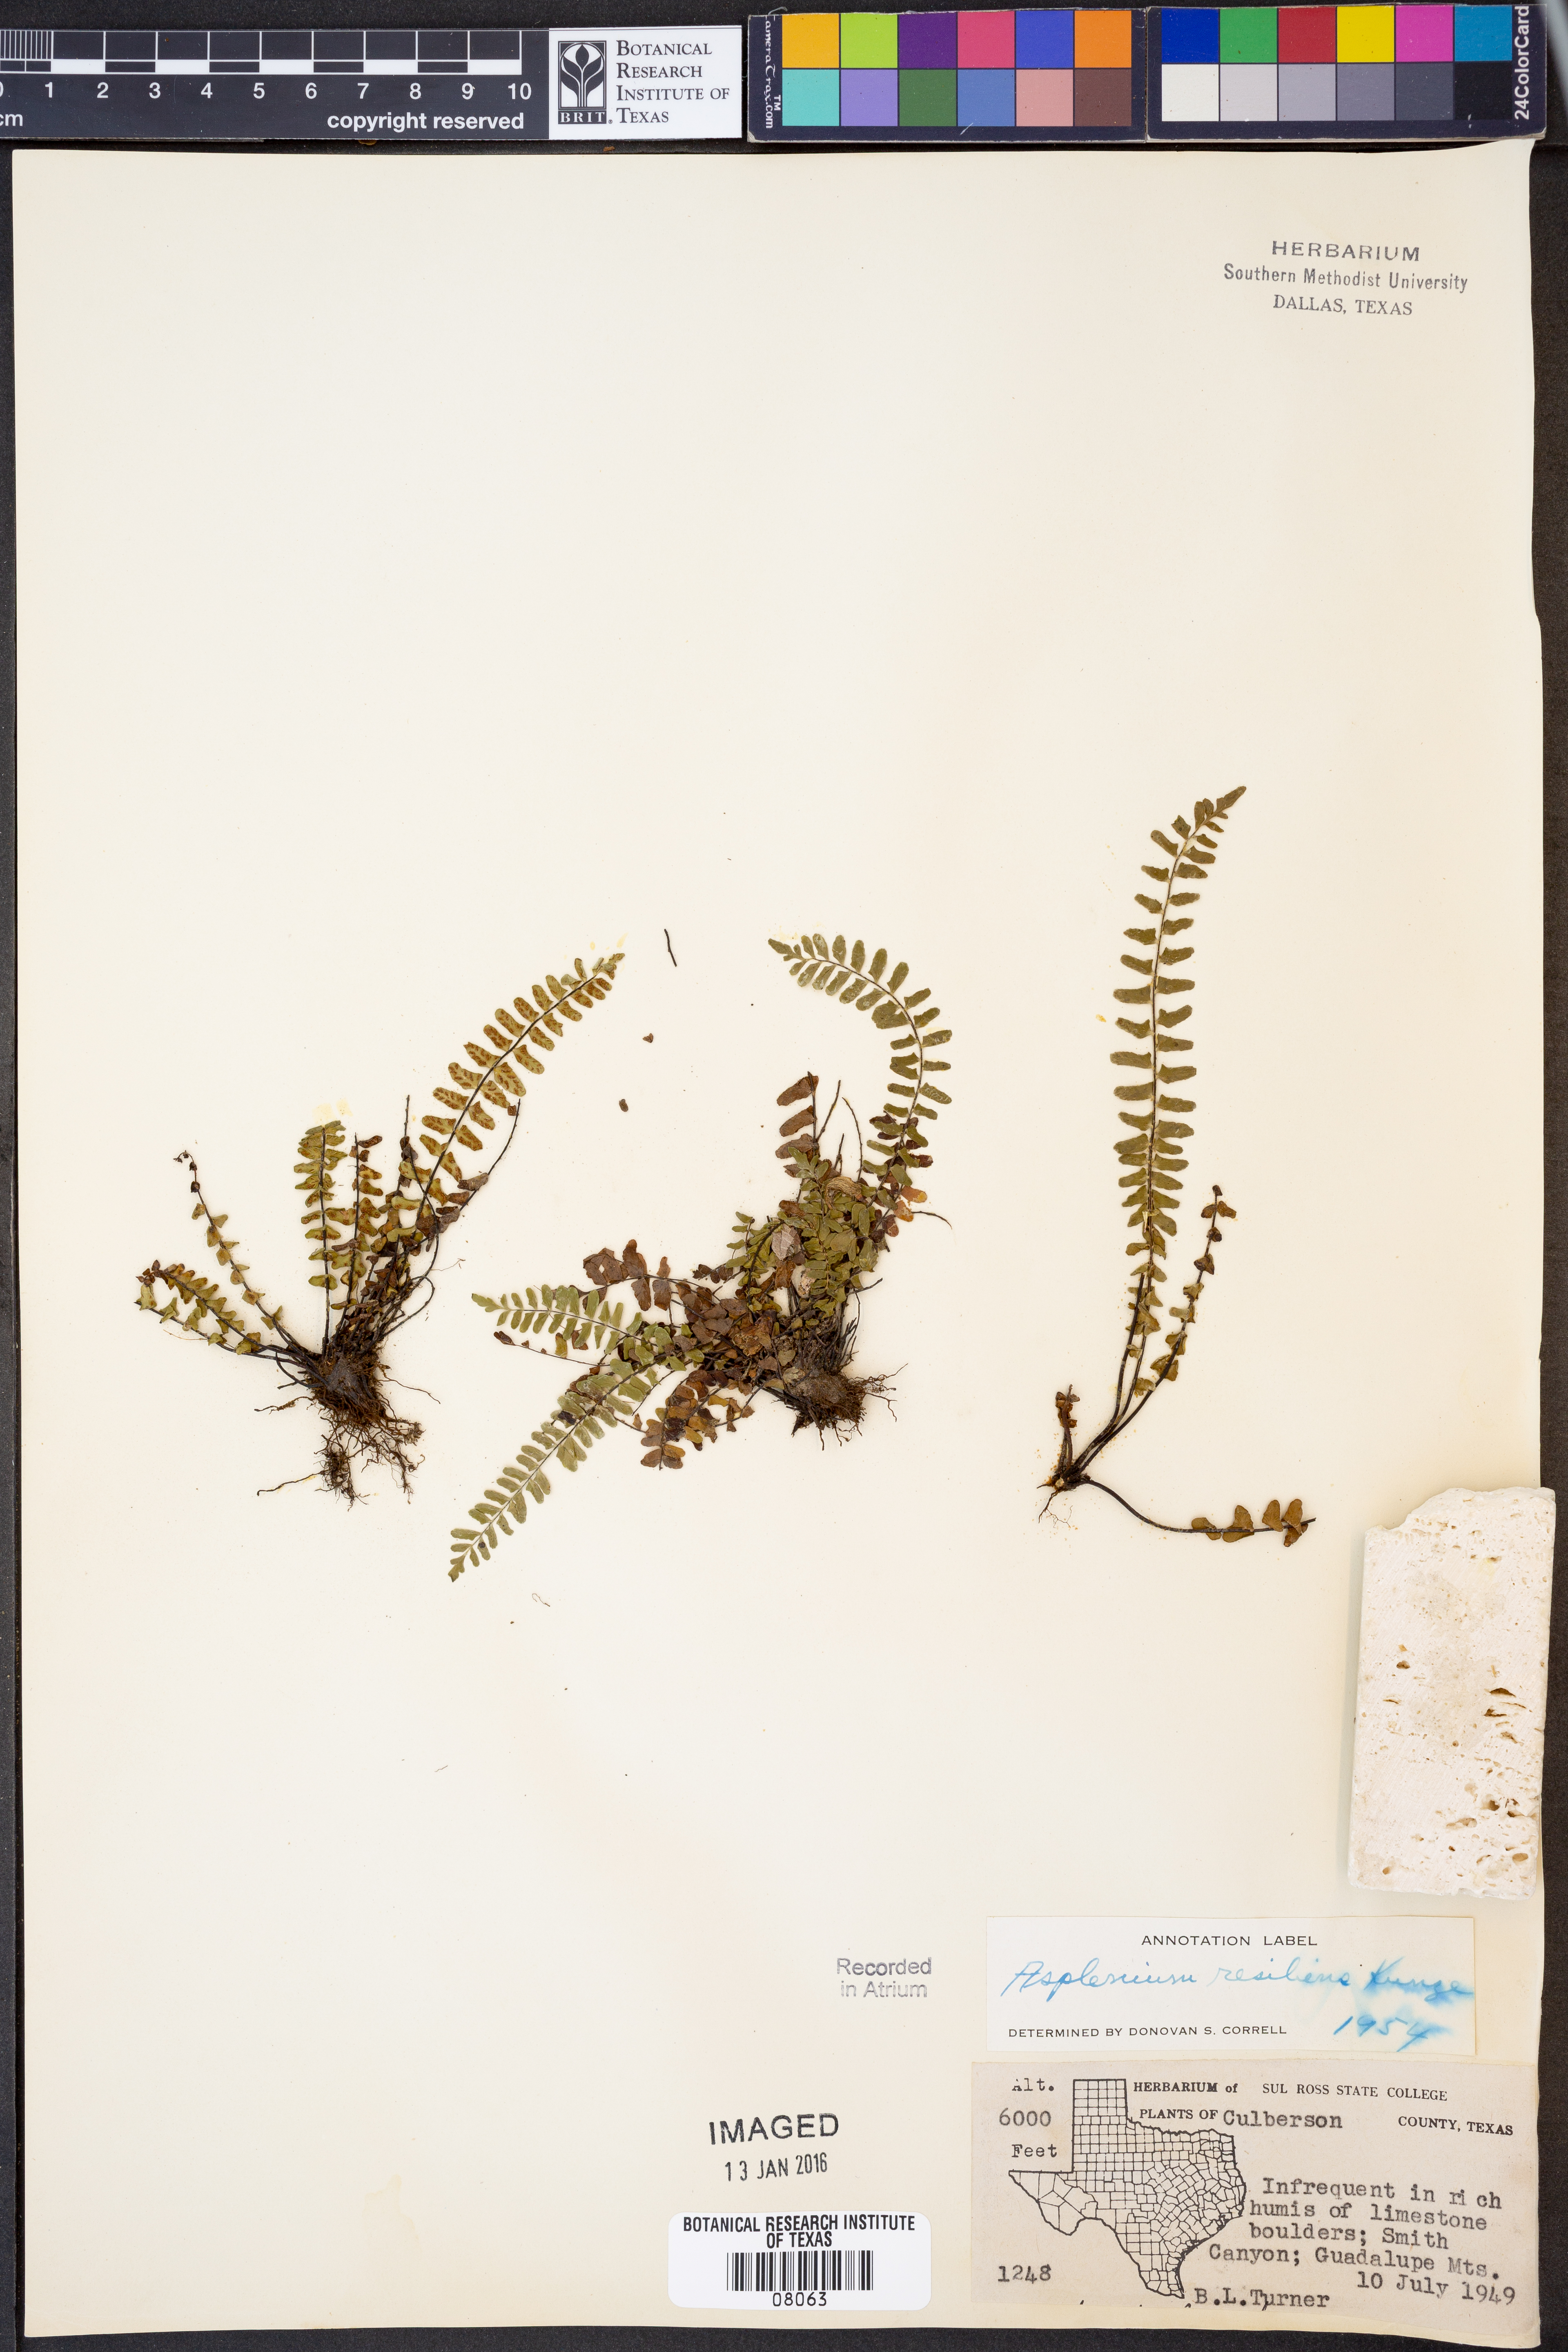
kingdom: Plantae
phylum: Tracheophyta
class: Polypodiopsida
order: Polypodiales
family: Aspleniaceae
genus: Asplenium
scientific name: Asplenium resiliens
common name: Blackstem spleenwort
